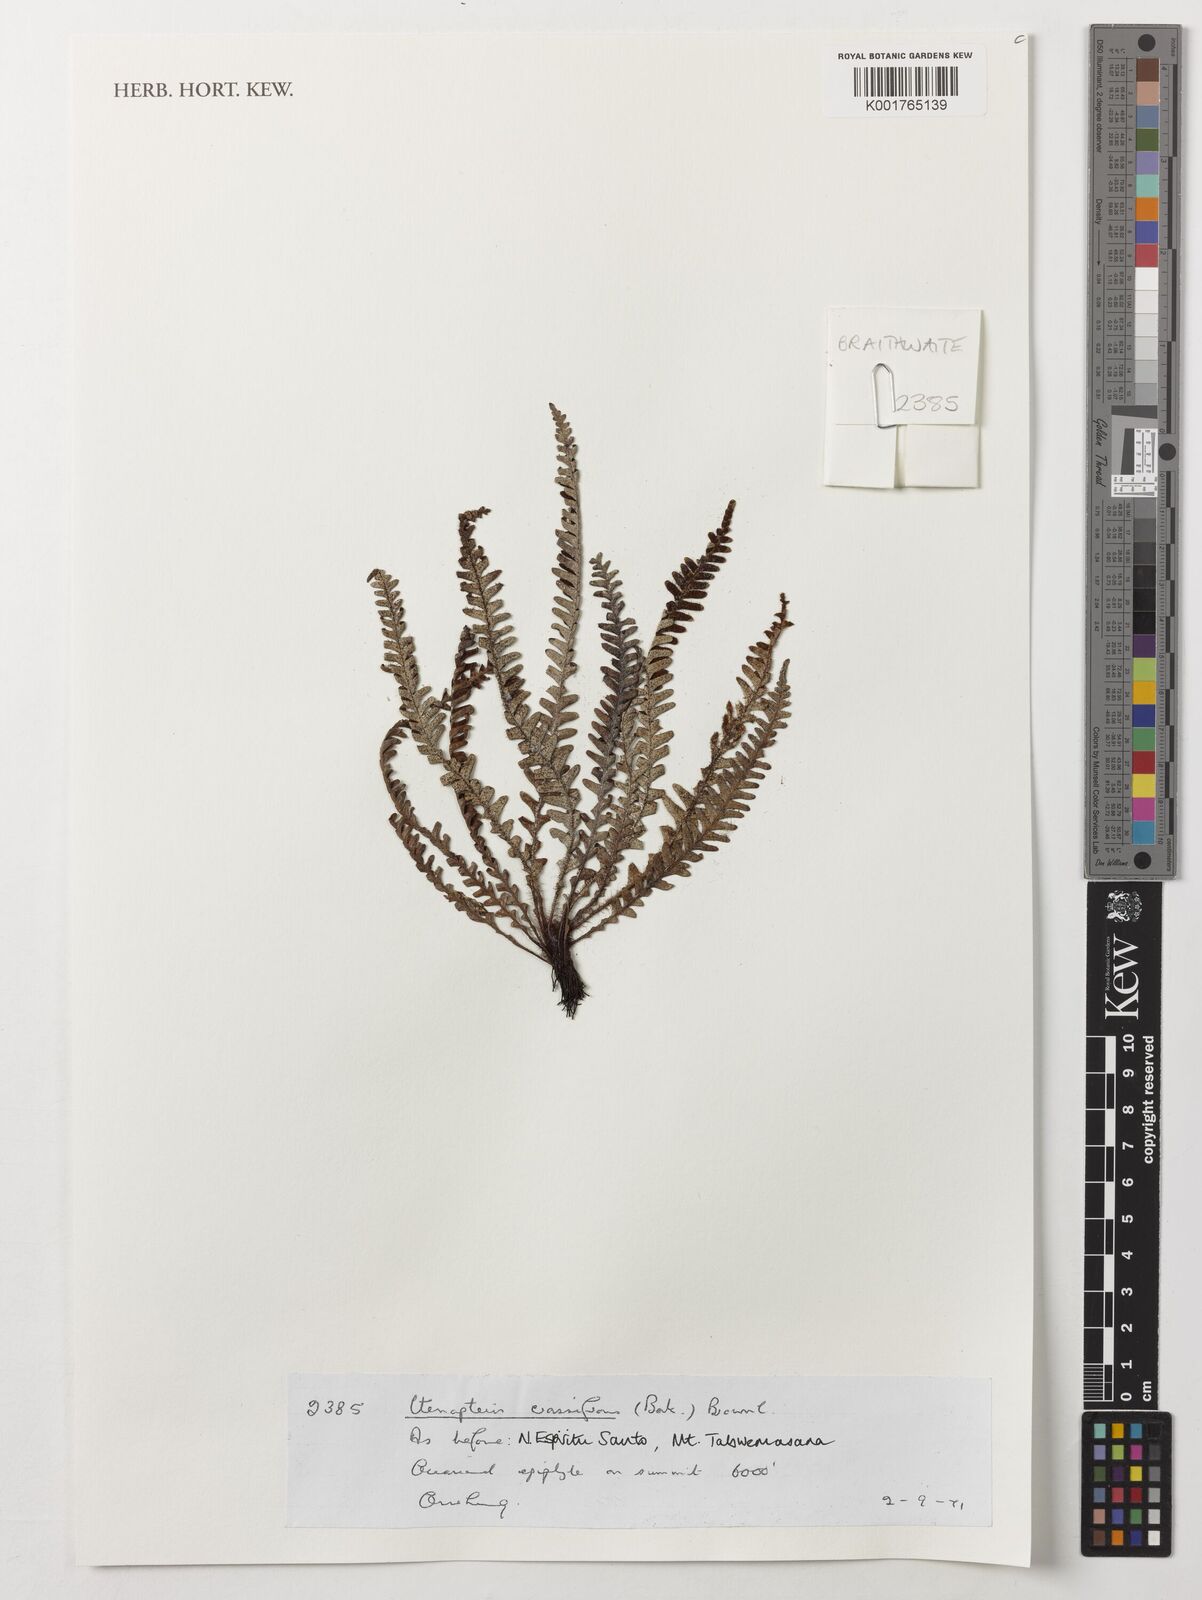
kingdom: Plantae
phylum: Tracheophyta
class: Polypodiopsida
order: Polypodiales
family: Polypodiaceae
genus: Dasygrammitis
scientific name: Dasygrammitis crassifrons
